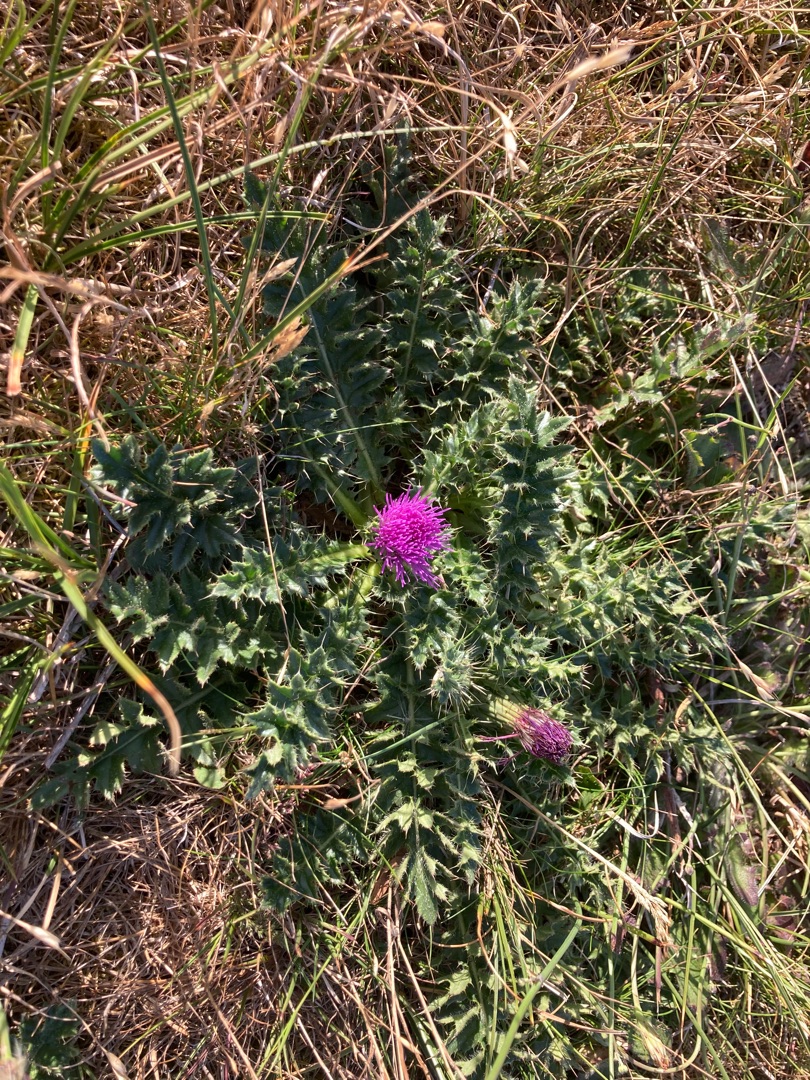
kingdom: Plantae
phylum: Tracheophyta
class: Magnoliopsida
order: Asterales
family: Asteraceae
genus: Cirsium
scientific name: Cirsium acaule
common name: Lav tidsel
